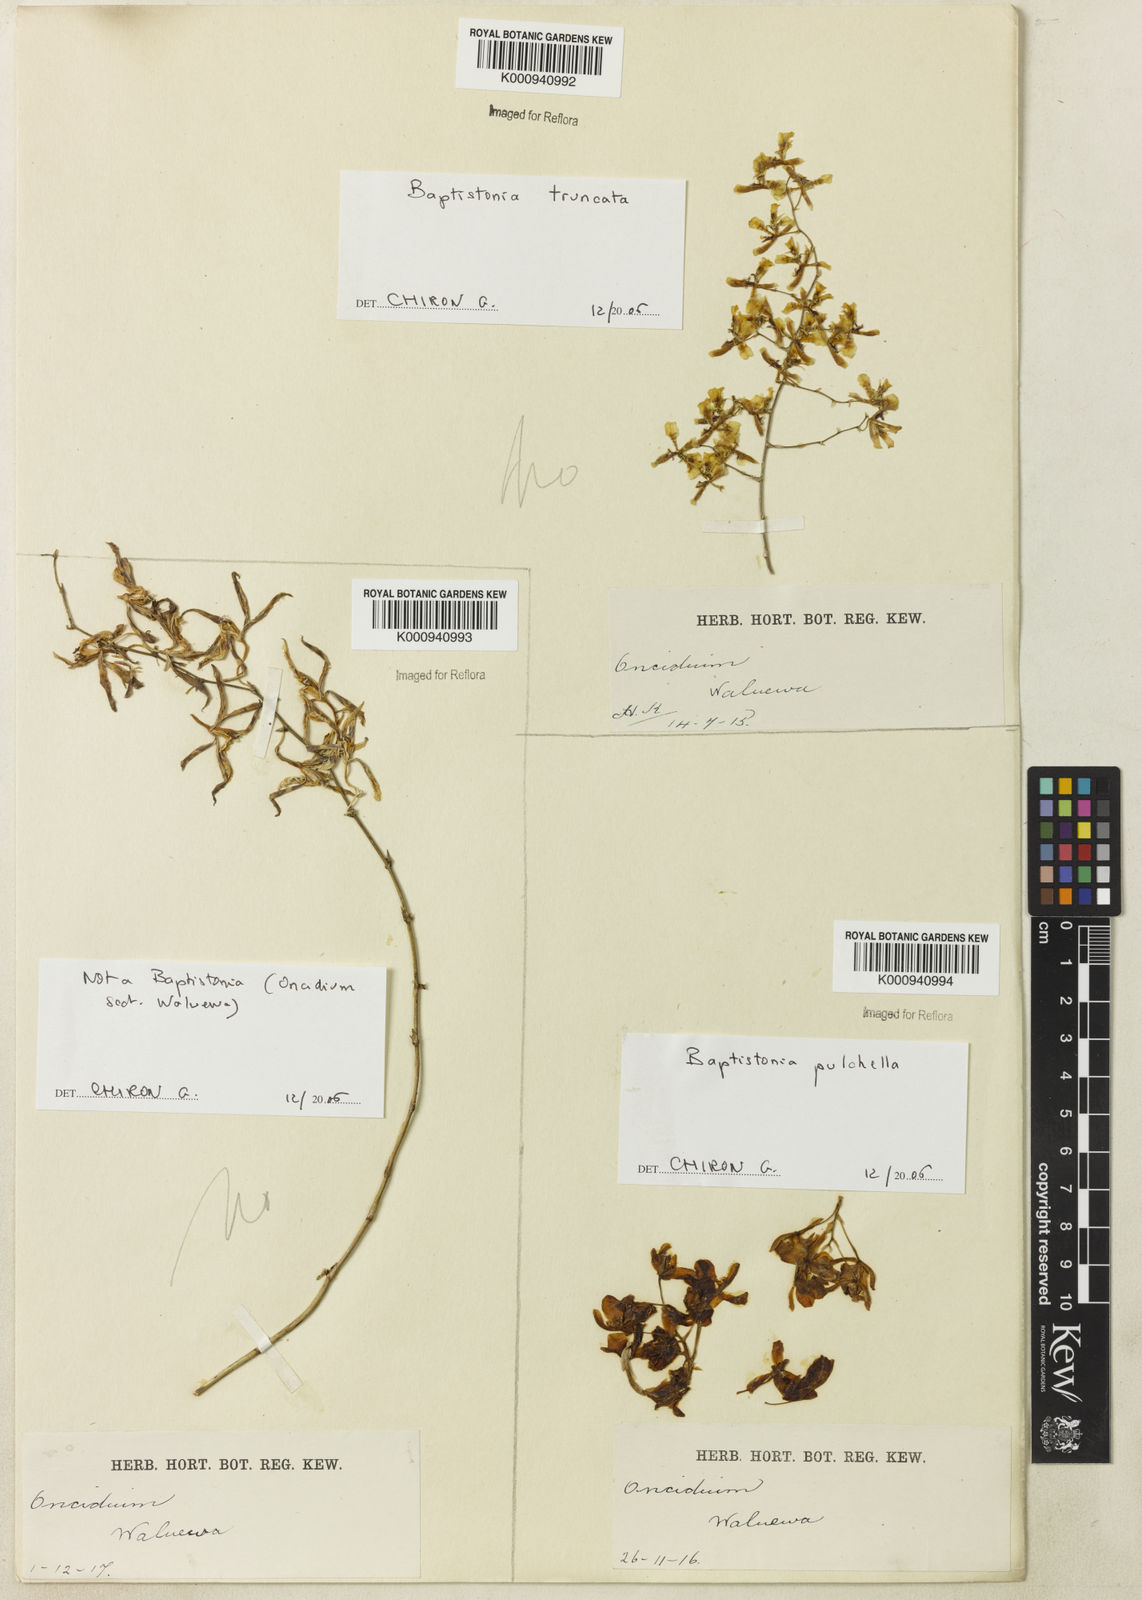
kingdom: Plantae
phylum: Tracheophyta
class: Liliopsida
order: Asparagales
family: Orchidaceae
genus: Gomesa
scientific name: Gomesa cuneata
